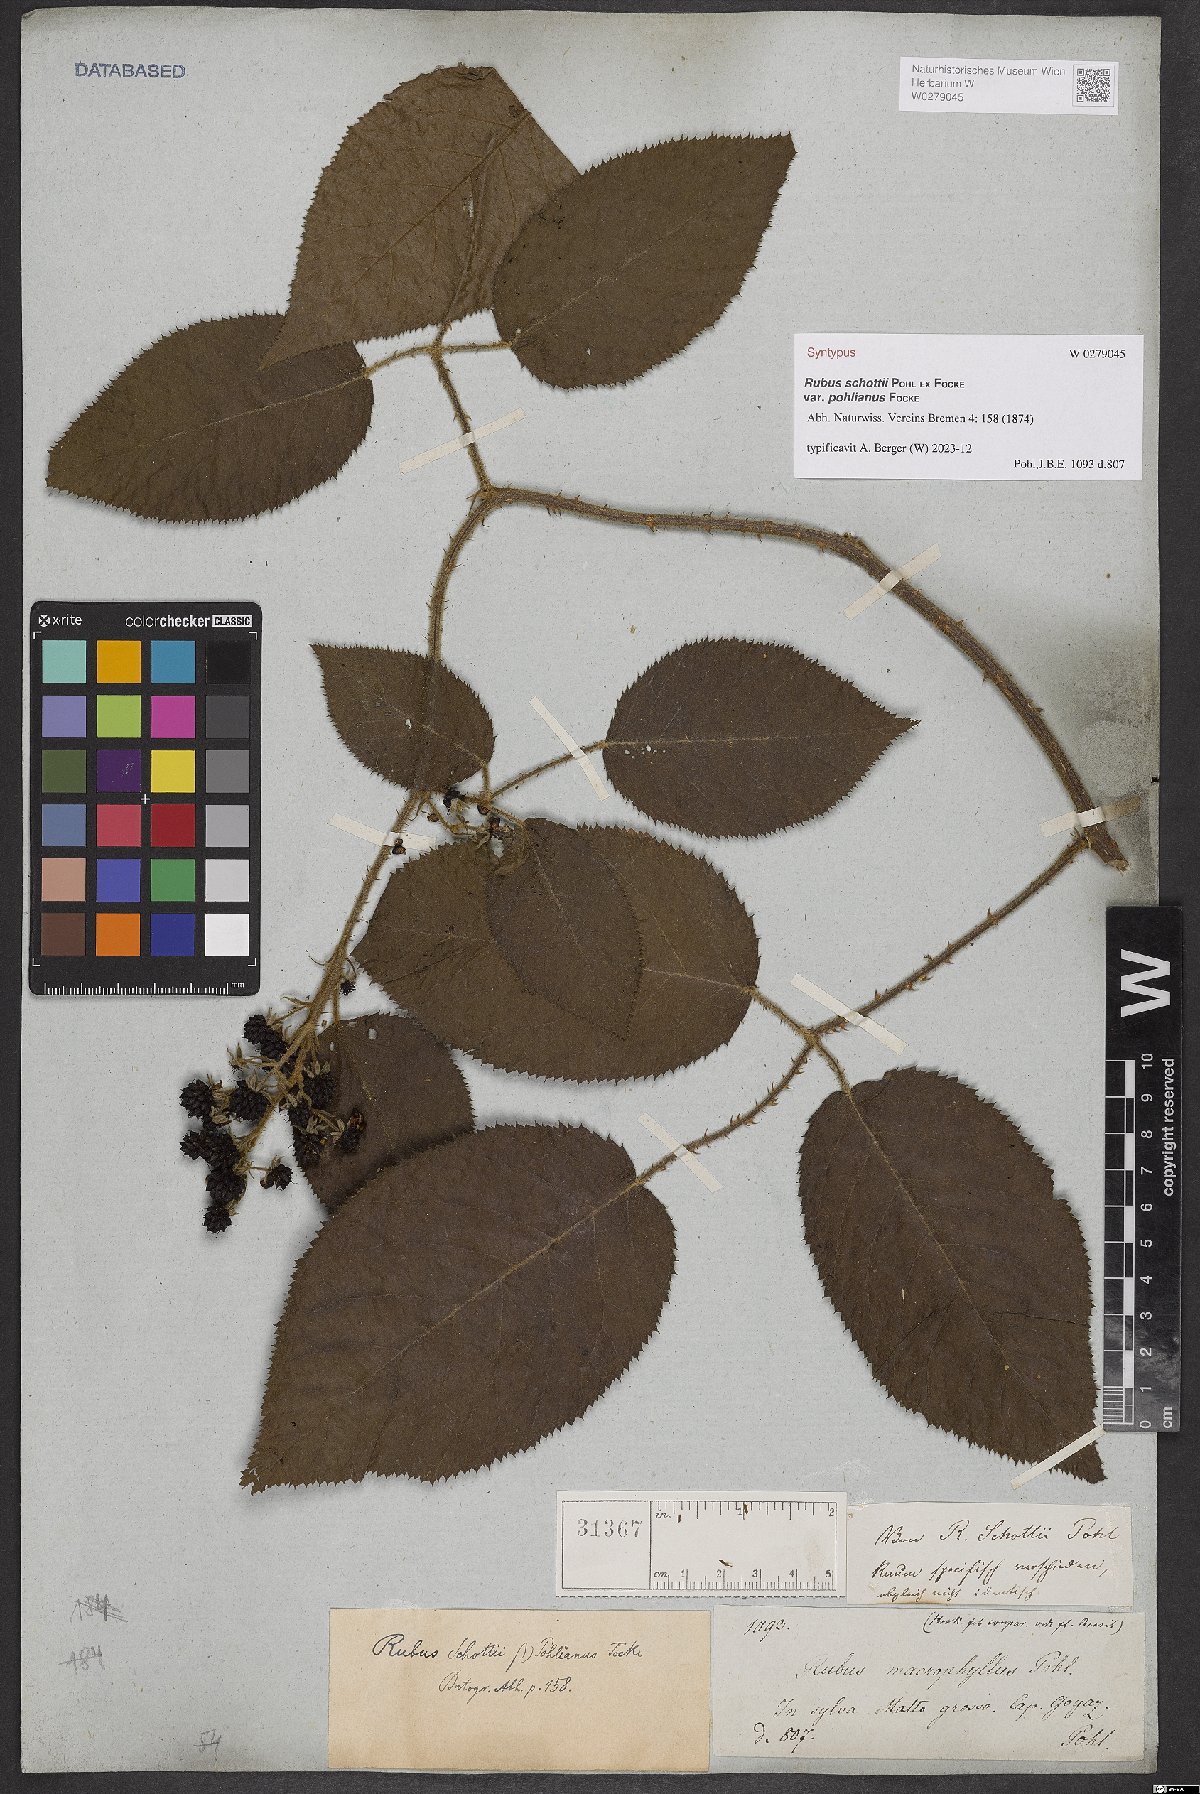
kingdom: Plantae
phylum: Tracheophyta
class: Magnoliopsida
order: Rosales
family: Rosaceae
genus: Rubus
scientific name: Rubus schottii
